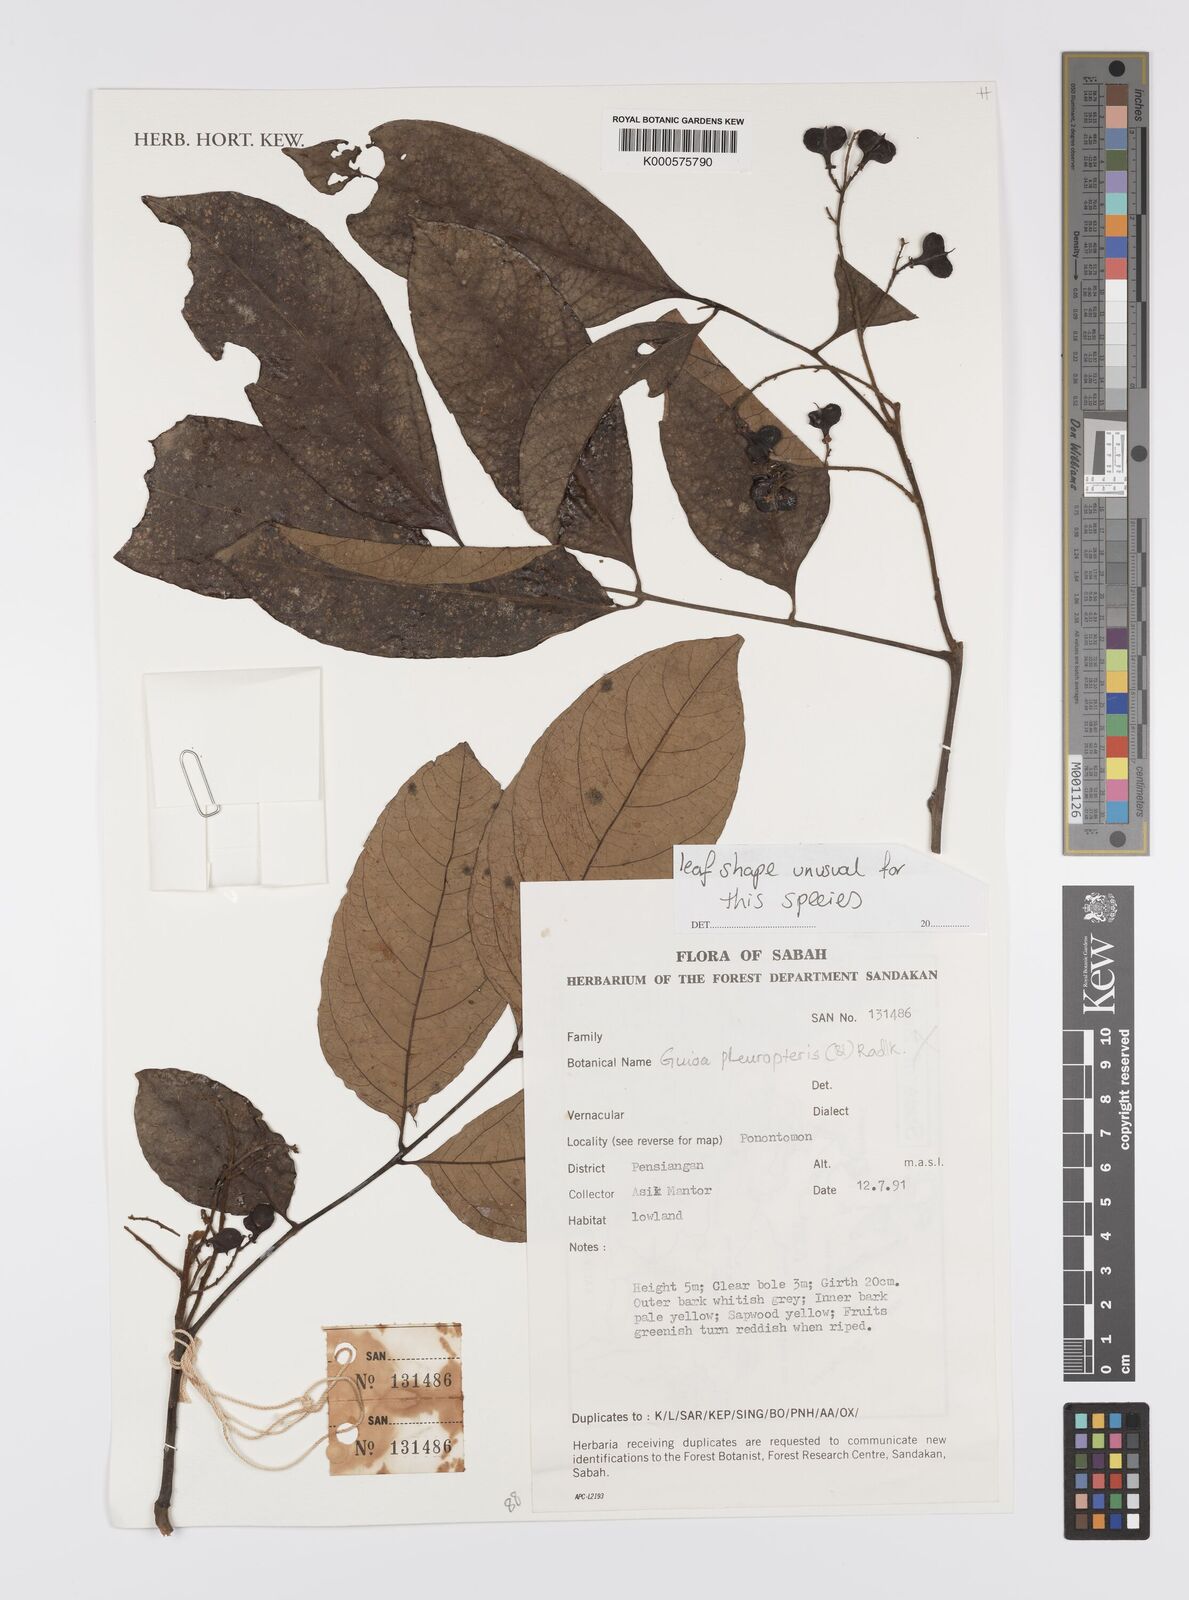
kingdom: Plantae
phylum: Tracheophyta
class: Magnoliopsida
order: Sapindales
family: Sapindaceae
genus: Guioa
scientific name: Guioa pleuropteris
